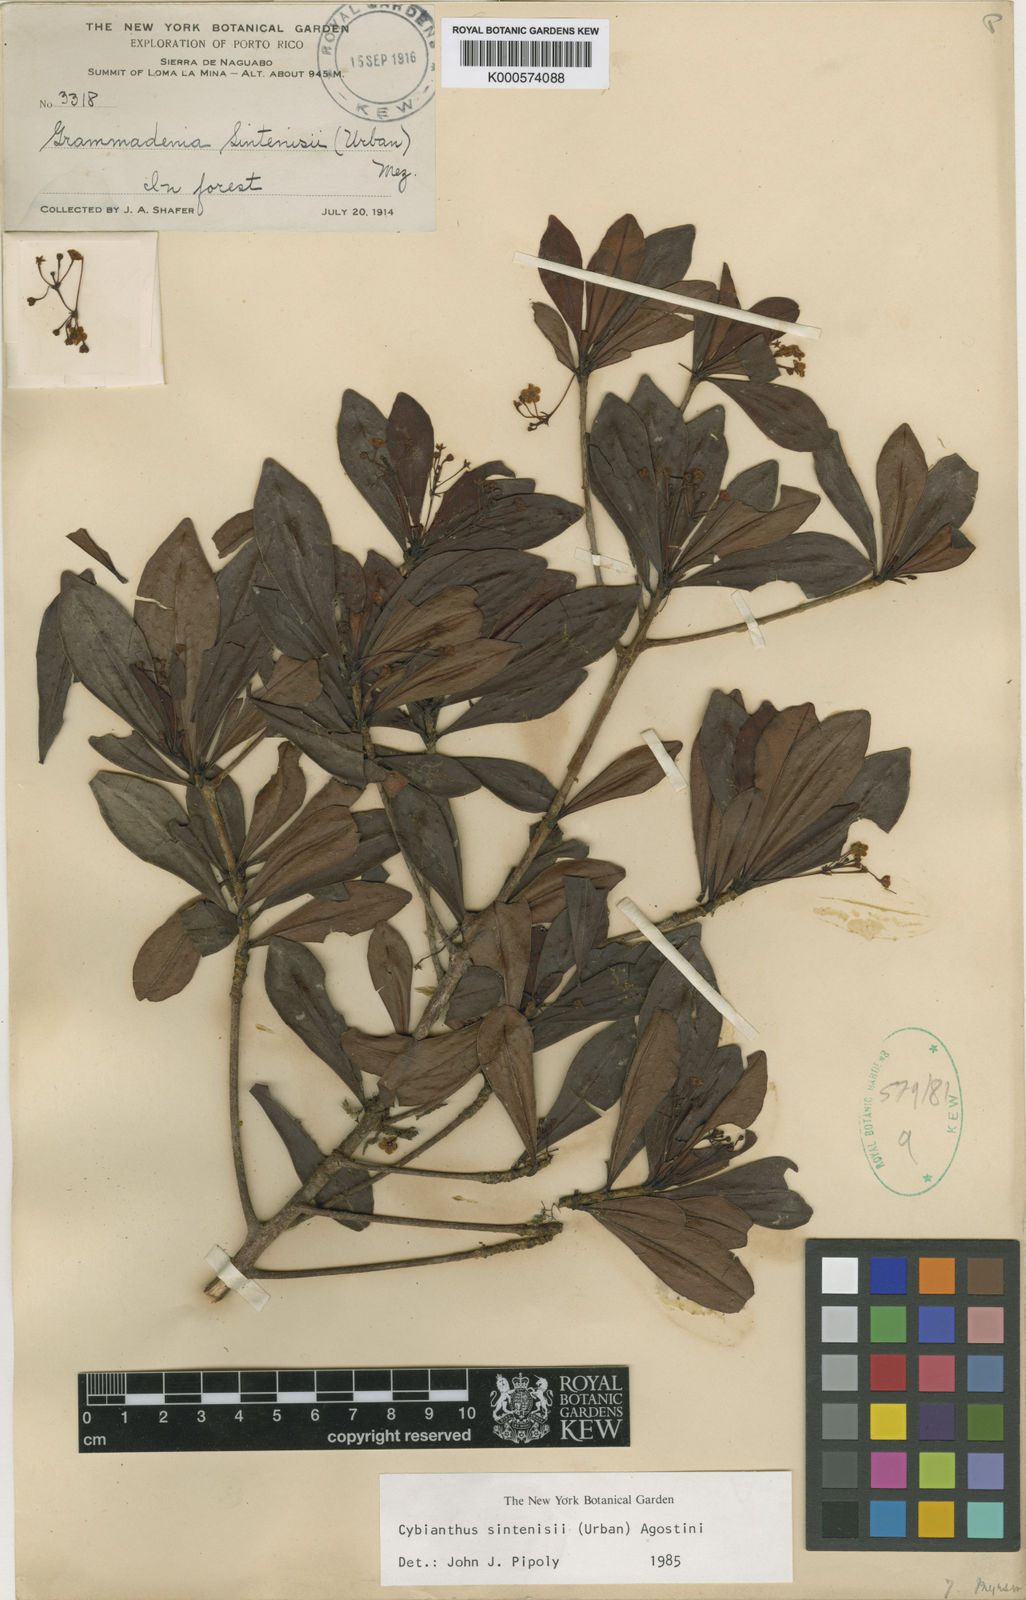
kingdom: Plantae
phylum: Tracheophyta
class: Magnoliopsida
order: Ericales
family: Primulaceae
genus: Cybianthus
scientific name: Cybianthus sintenisii
